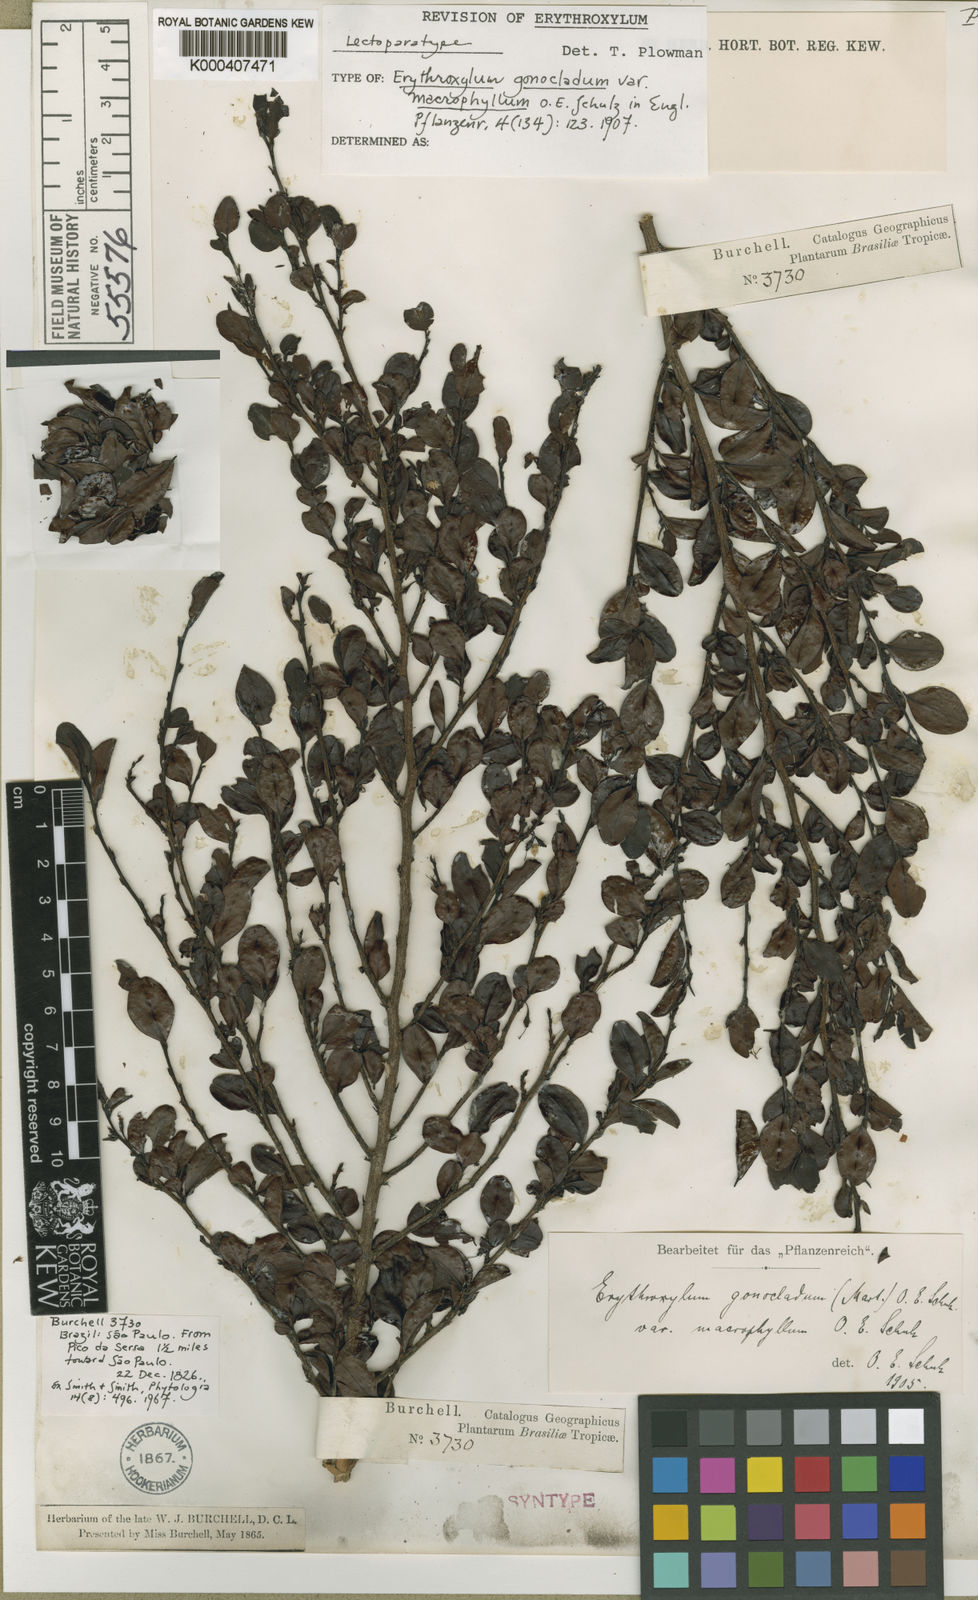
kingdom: Plantae
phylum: Tracheophyta
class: Magnoliopsida
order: Malpighiales
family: Erythroxylaceae
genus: Erythroxylum
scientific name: Erythroxylum
